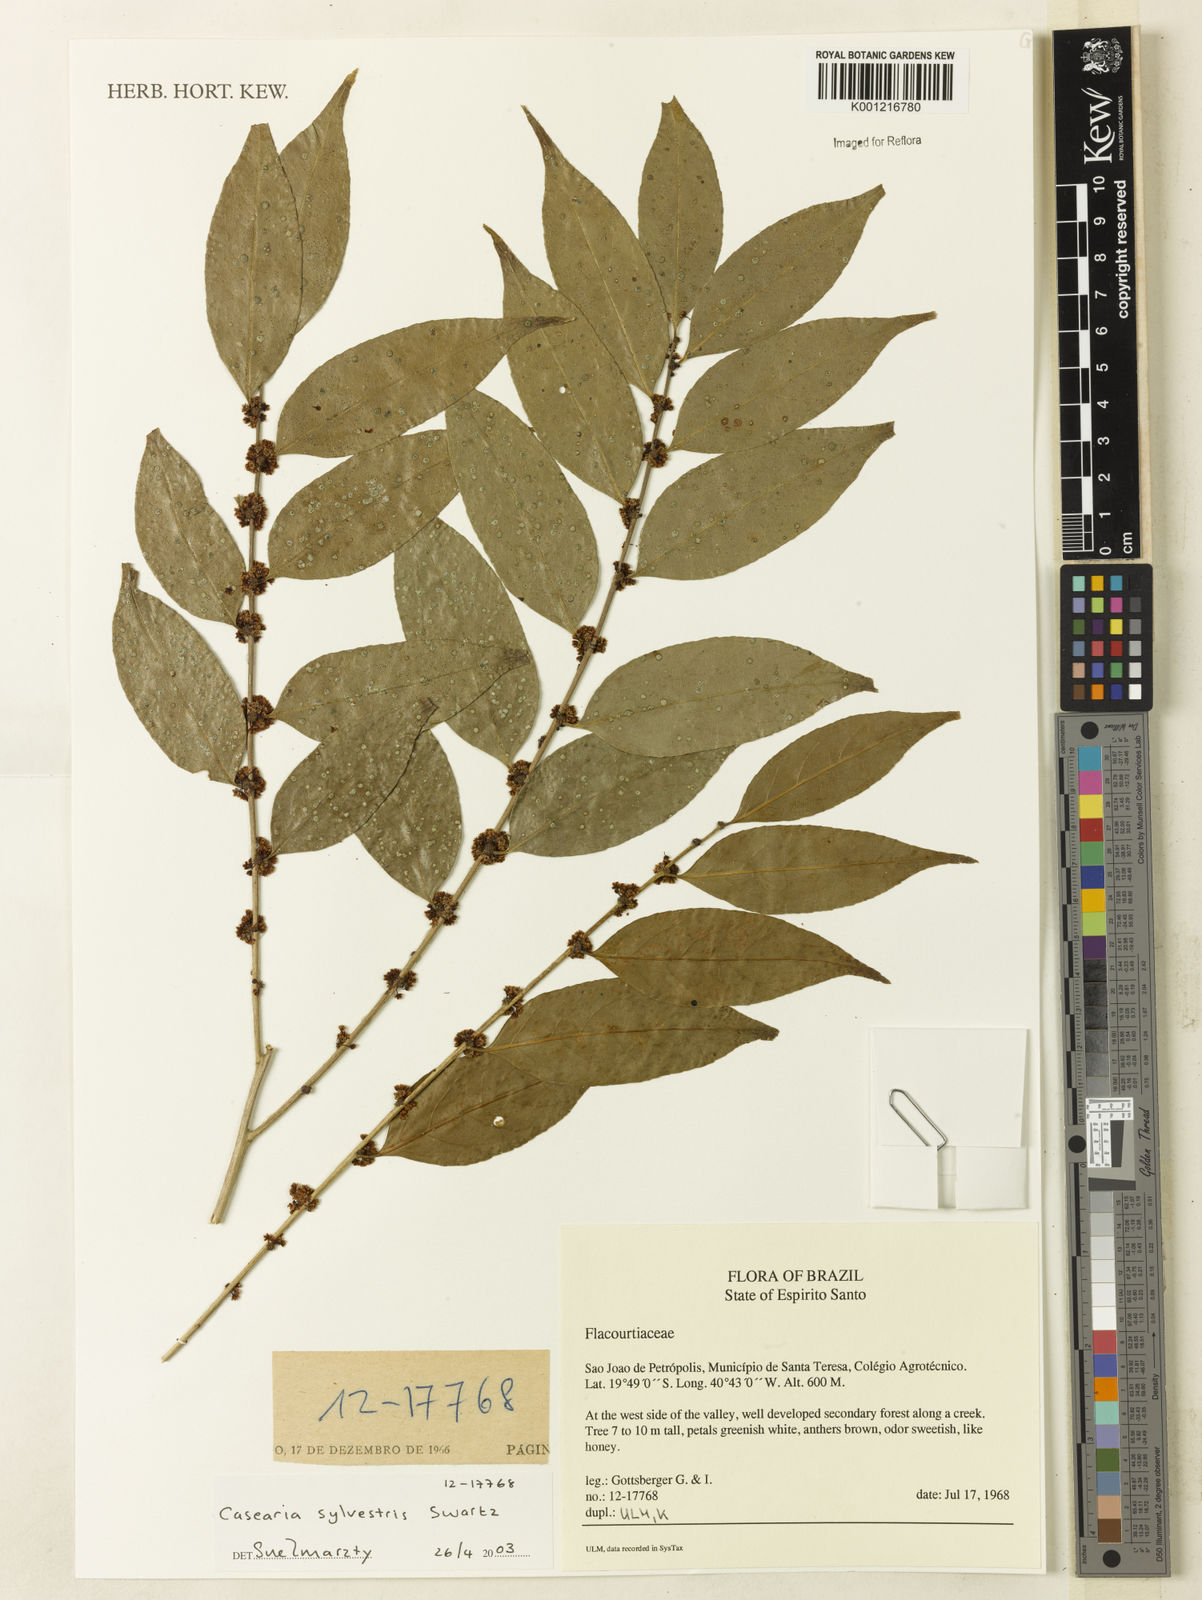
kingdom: Plantae
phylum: Tracheophyta
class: Magnoliopsida
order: Malpighiales
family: Salicaceae
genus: Casearia
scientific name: Casearia sylvestris
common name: Wild sage
